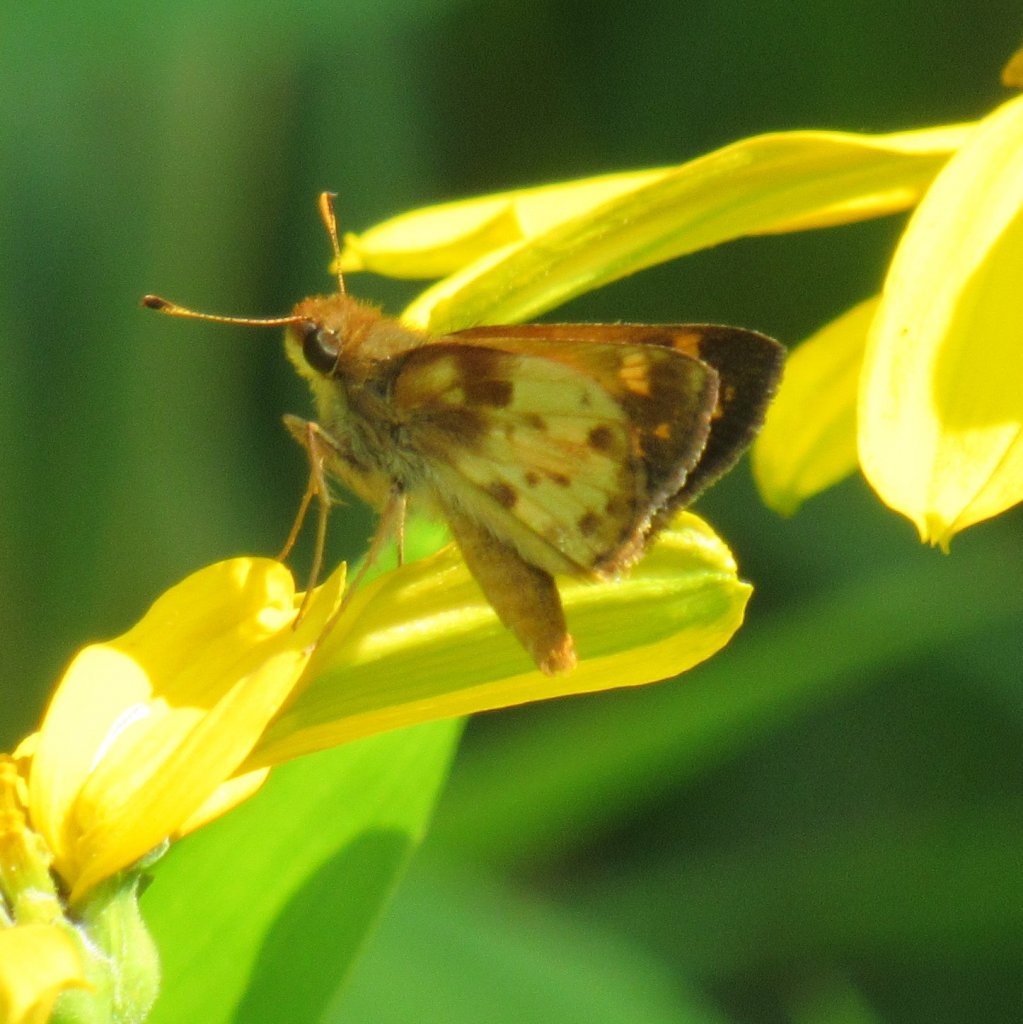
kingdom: Animalia
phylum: Arthropoda
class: Insecta
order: Lepidoptera
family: Hesperiidae
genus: Lon
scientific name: Lon zabulon
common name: Zabulon Skipper
